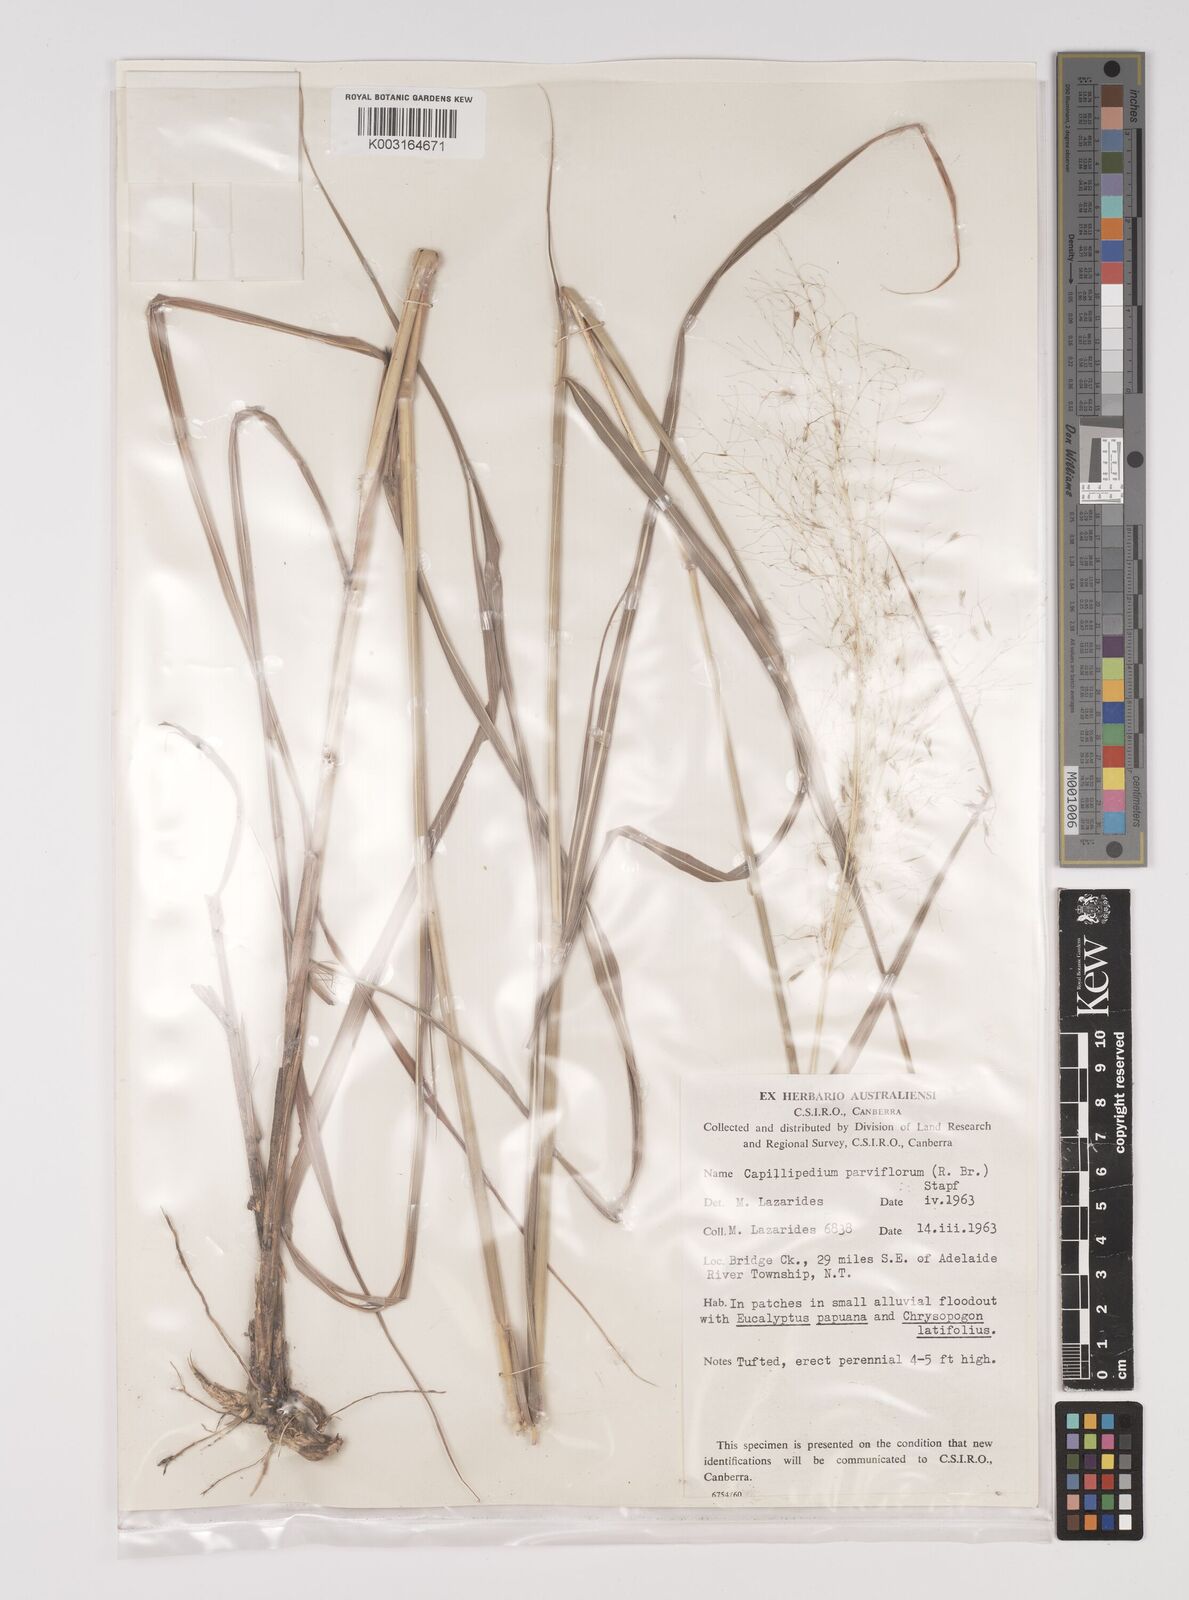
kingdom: Plantae
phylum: Tracheophyta
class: Liliopsida
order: Poales
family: Poaceae
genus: Capillipedium
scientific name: Capillipedium parviflorum
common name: Golden-beard
